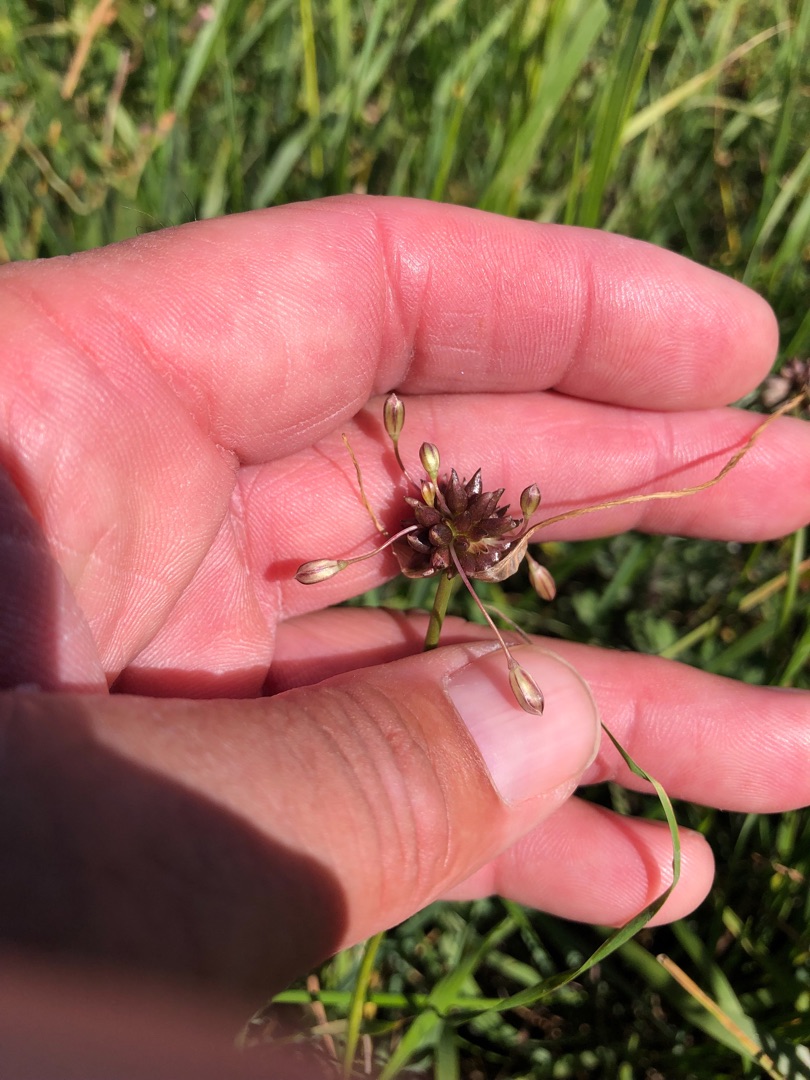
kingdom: Plantae
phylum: Tracheophyta
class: Liliopsida
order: Asparagales
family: Amaryllidaceae
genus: Allium
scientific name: Allium oleraceum
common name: Vild løg
